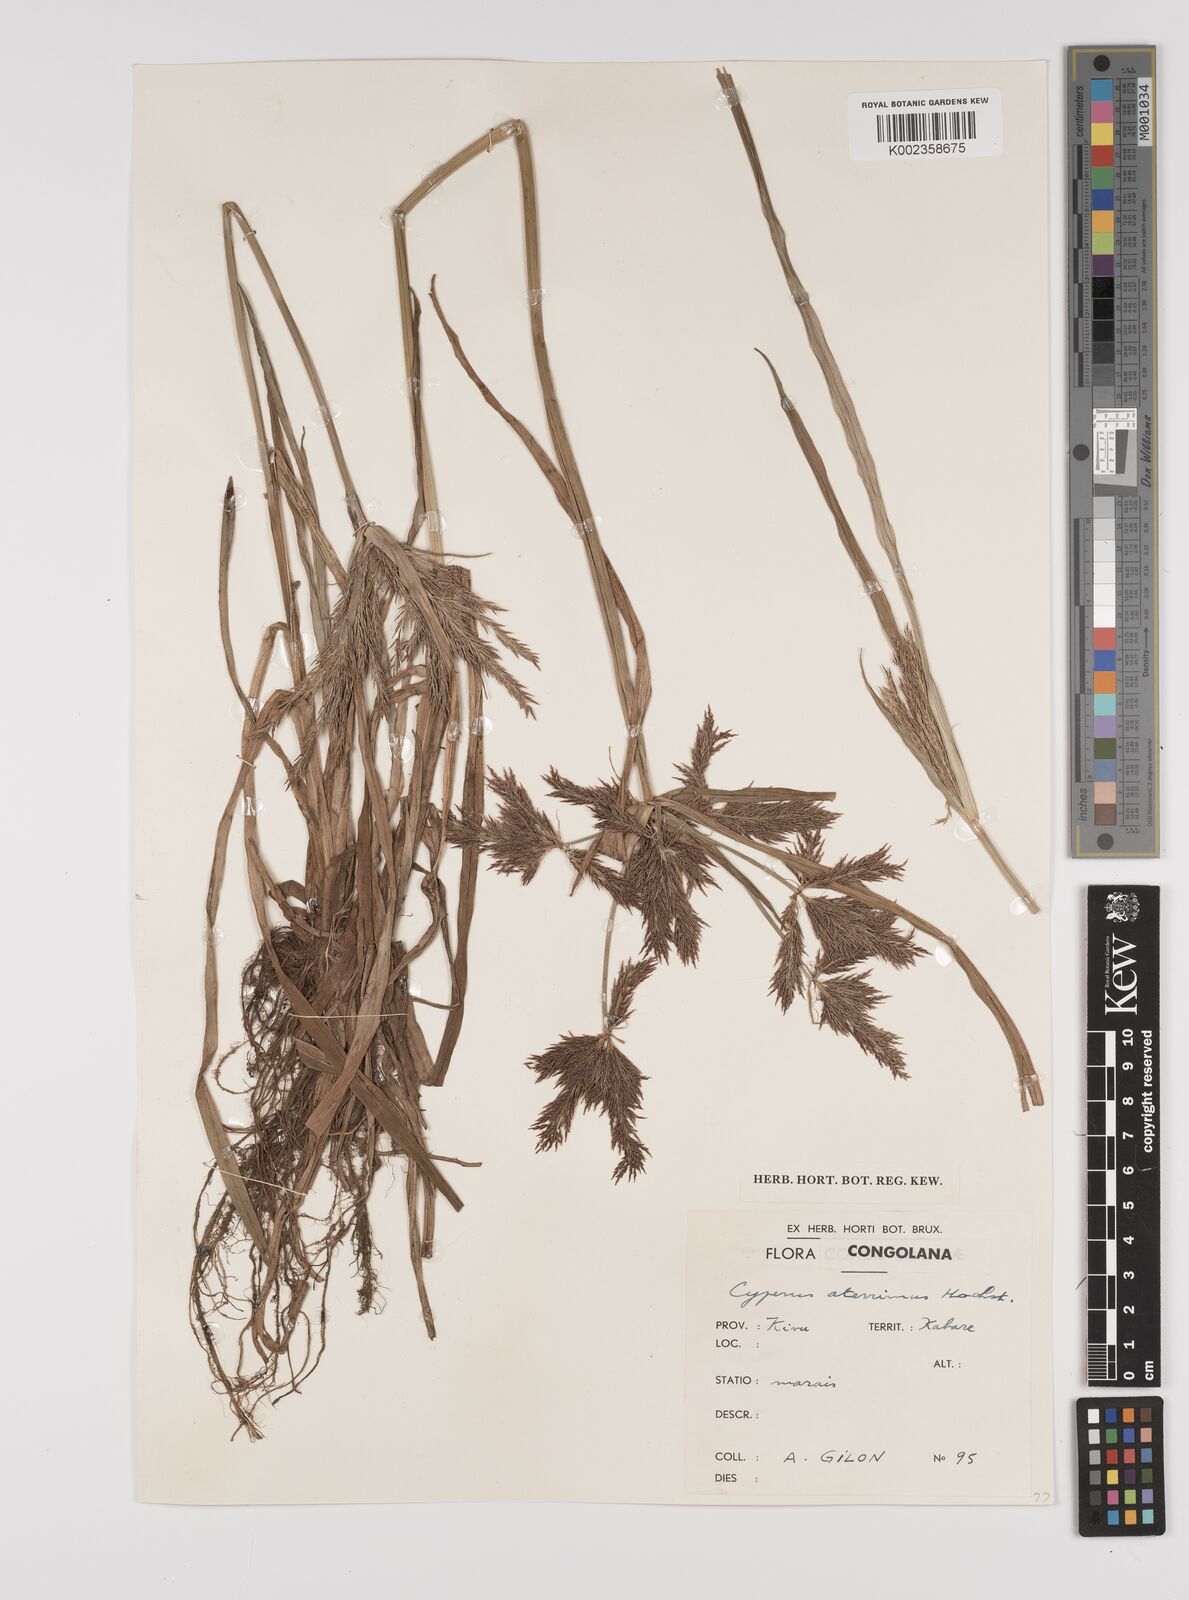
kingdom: Plantae
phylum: Tracheophyta
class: Liliopsida
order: Poales
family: Cyperaceae
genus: Cyperus
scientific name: Cyperus aterrimus
